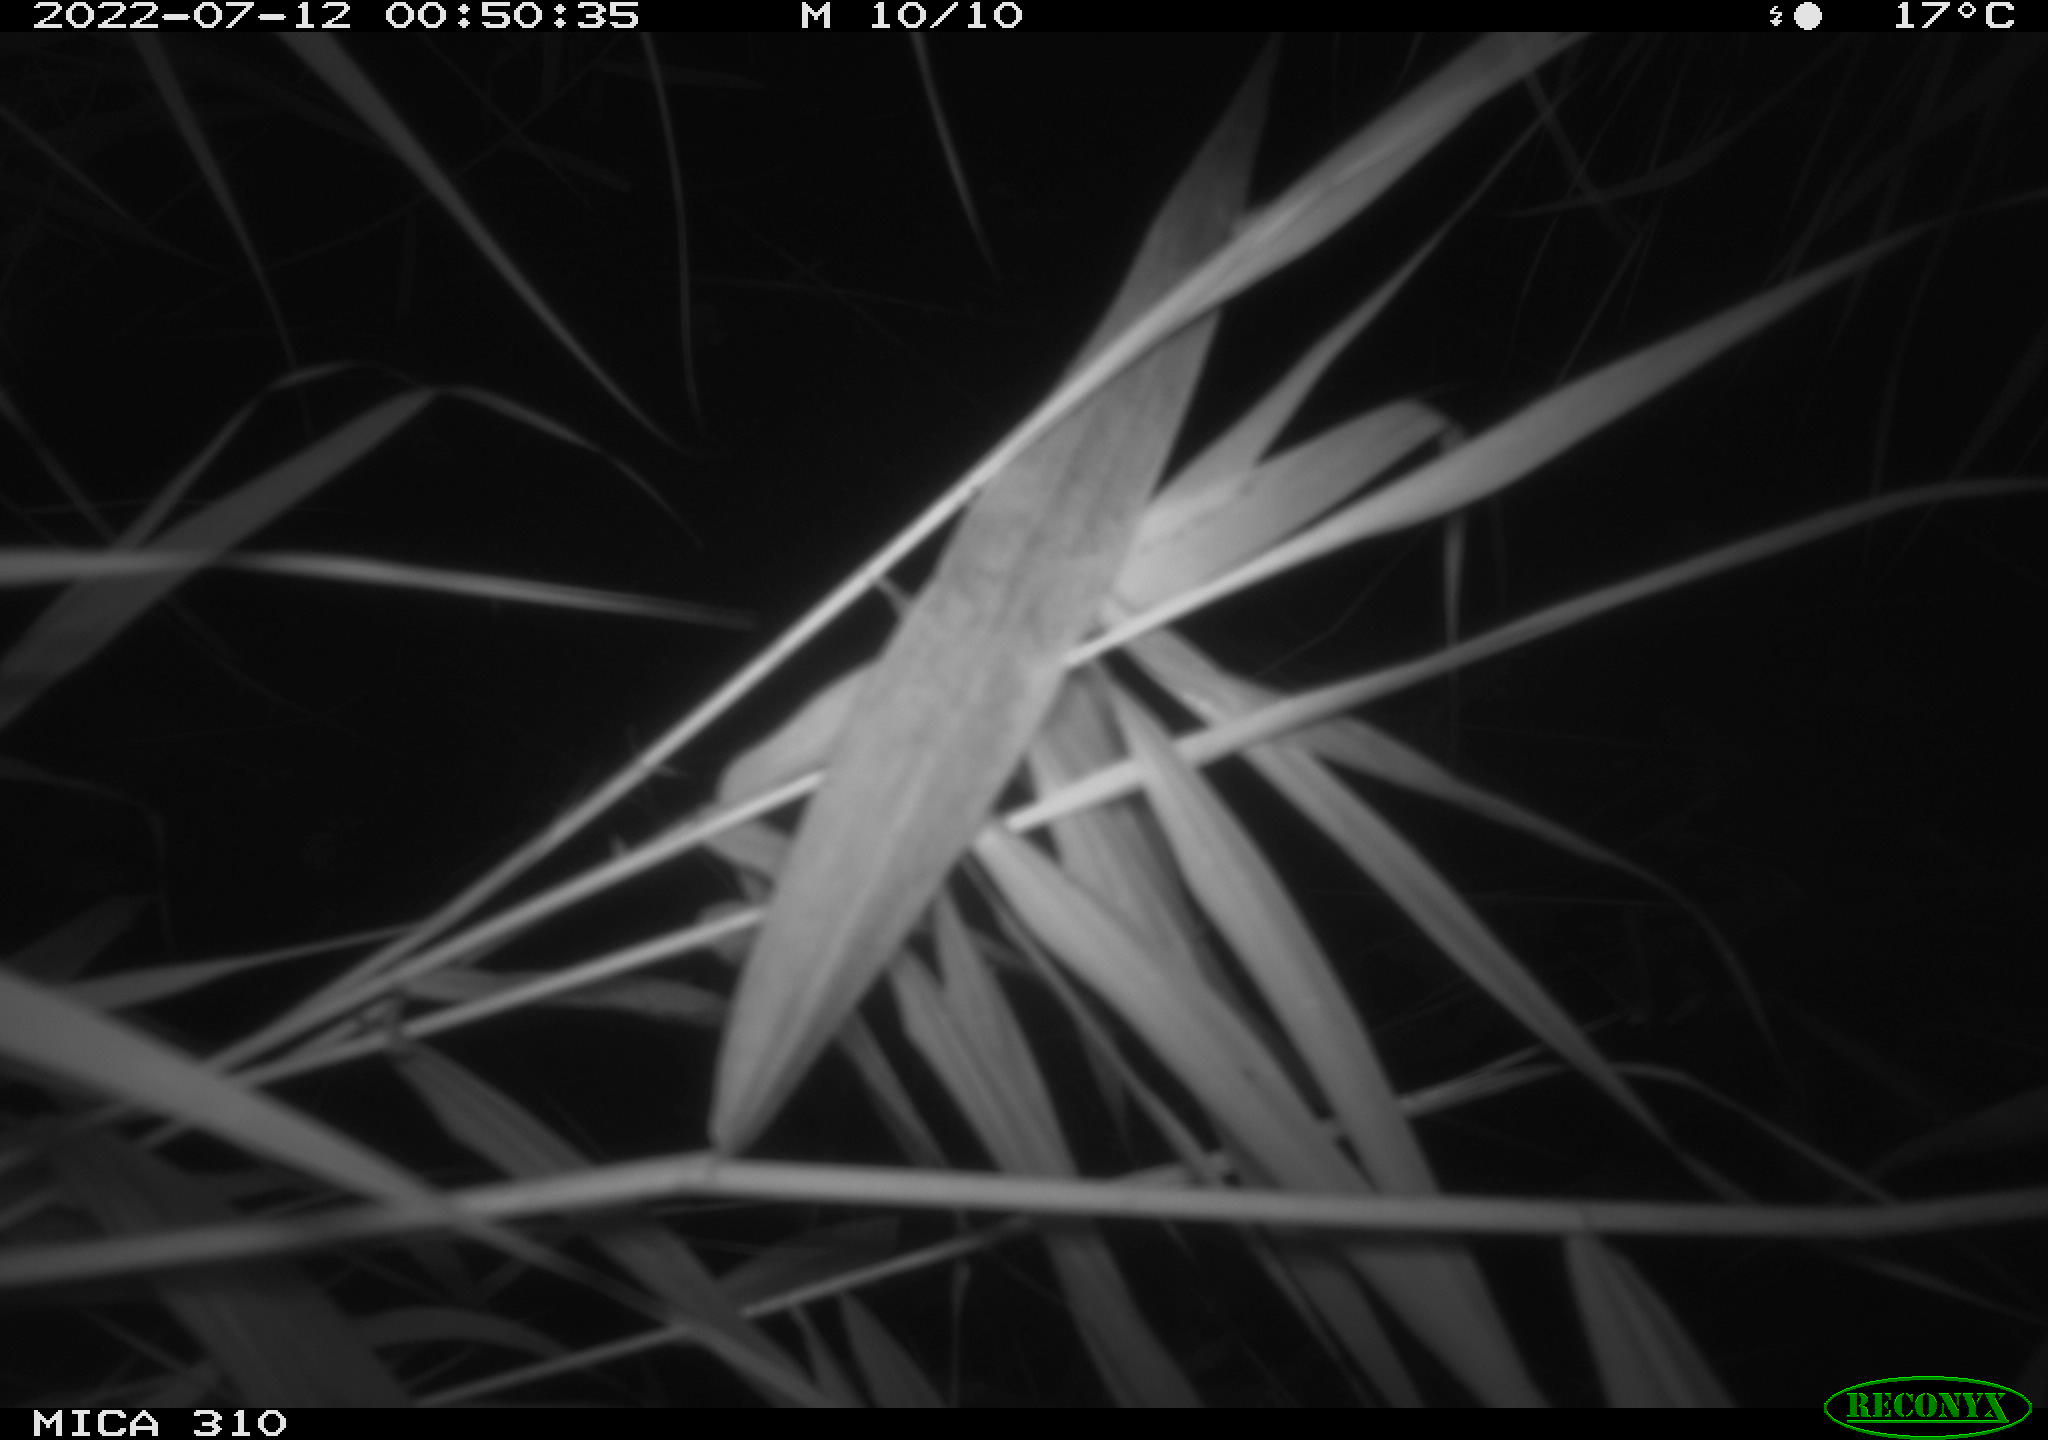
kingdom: Animalia
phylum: Chordata
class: Aves
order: Anseriformes
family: Anatidae
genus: Anas
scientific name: Anas platyrhynchos
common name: Mallard
